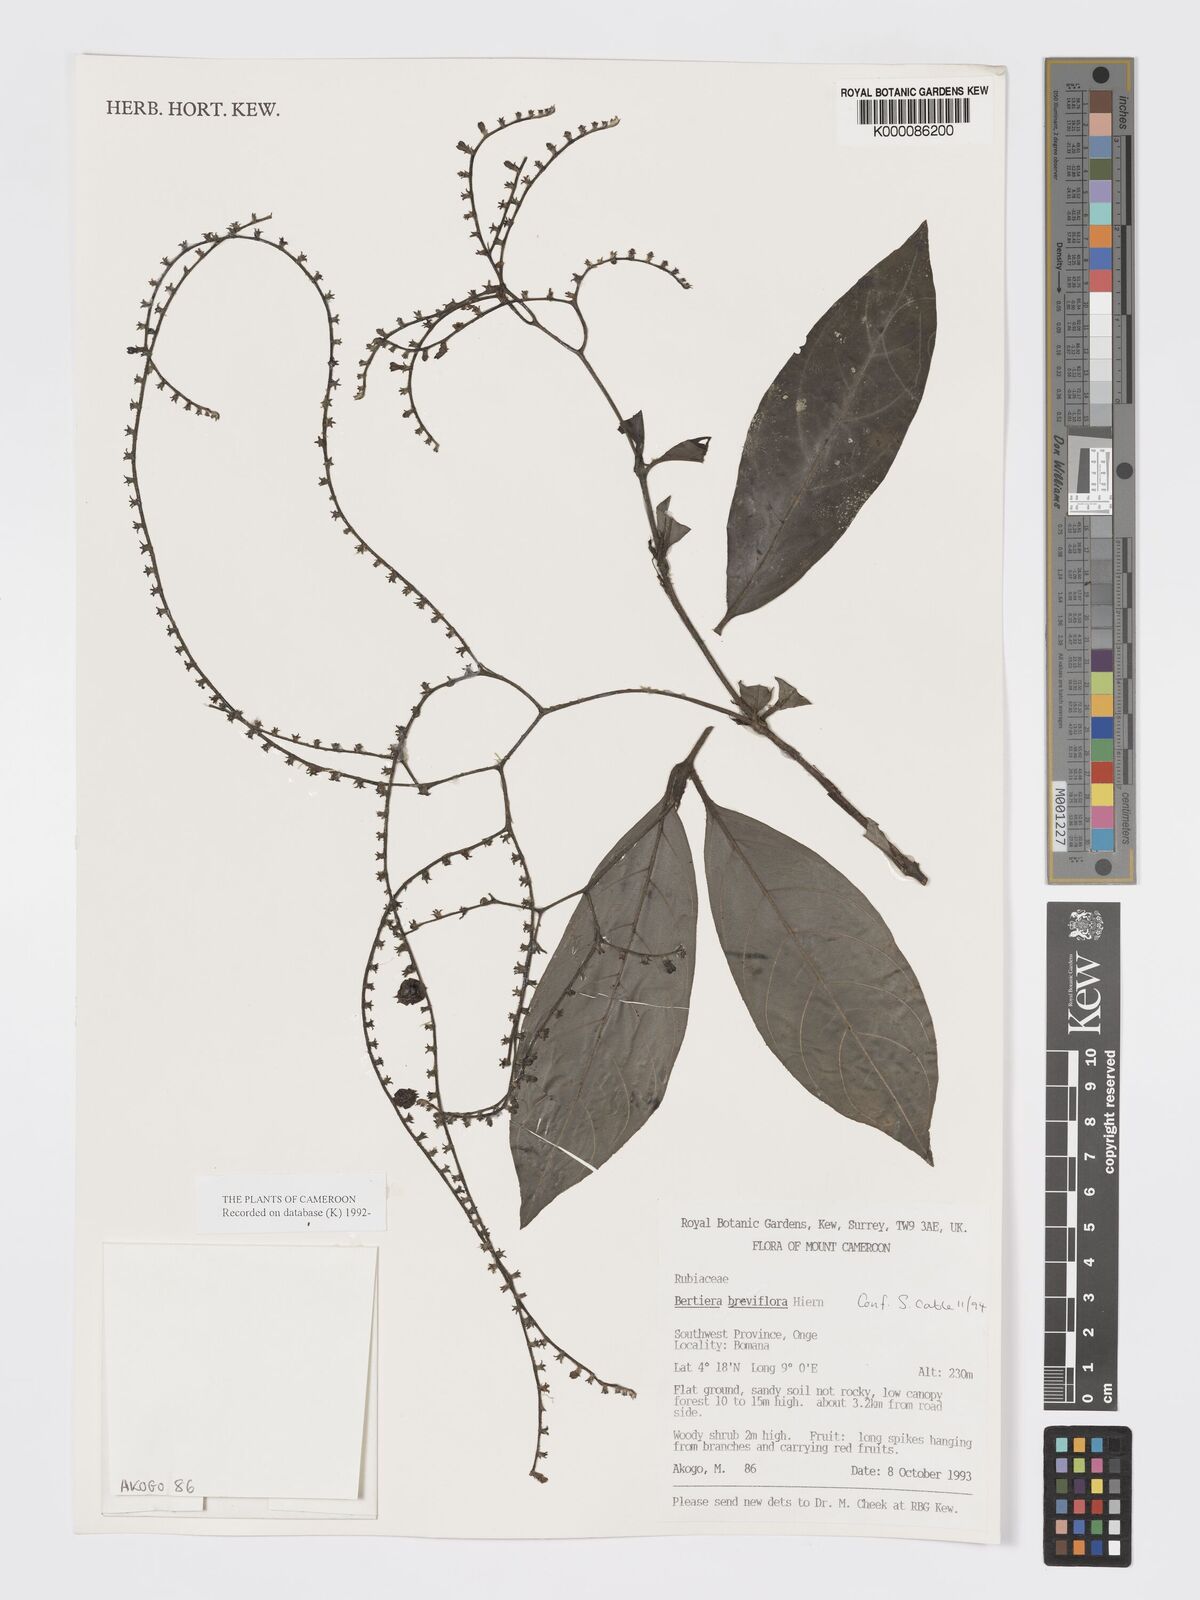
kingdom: Plantae
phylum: Tracheophyta
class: Magnoliopsida
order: Gentianales
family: Rubiaceae
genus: Bertiera
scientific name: Bertiera breviflora
